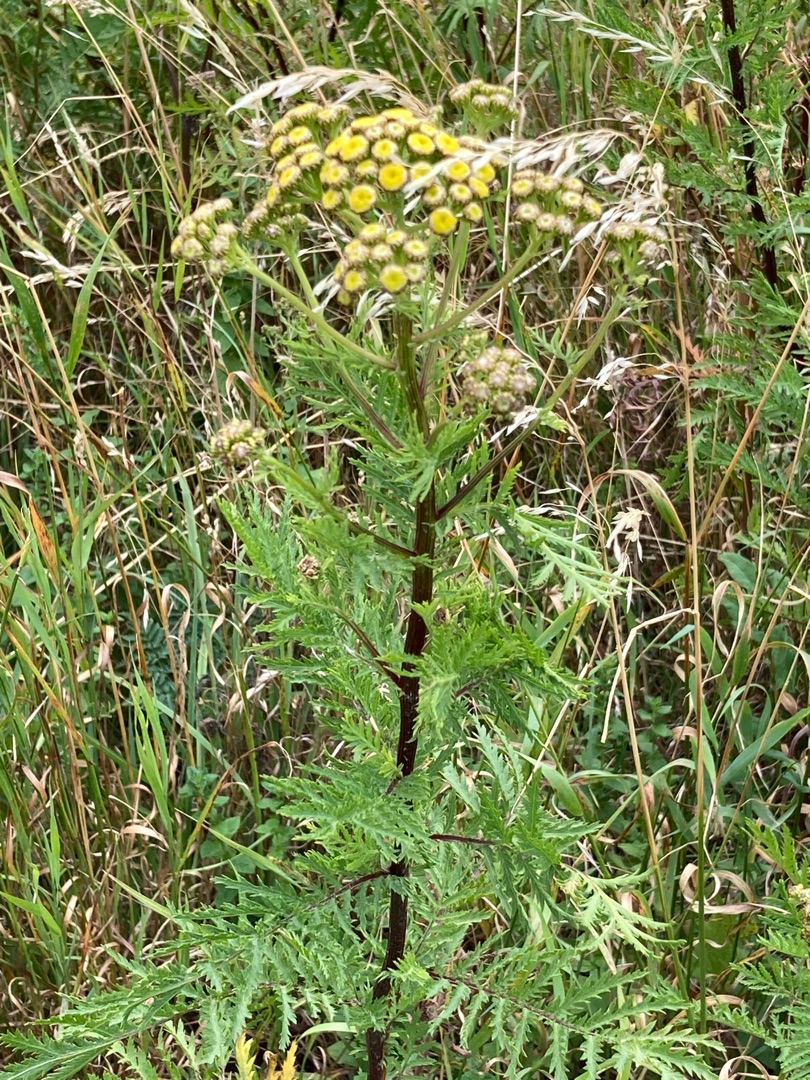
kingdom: Plantae
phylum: Tracheophyta
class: Magnoliopsida
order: Asterales
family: Asteraceae
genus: Tanacetum
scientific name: Tanacetum vulgare
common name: Rejnfan
